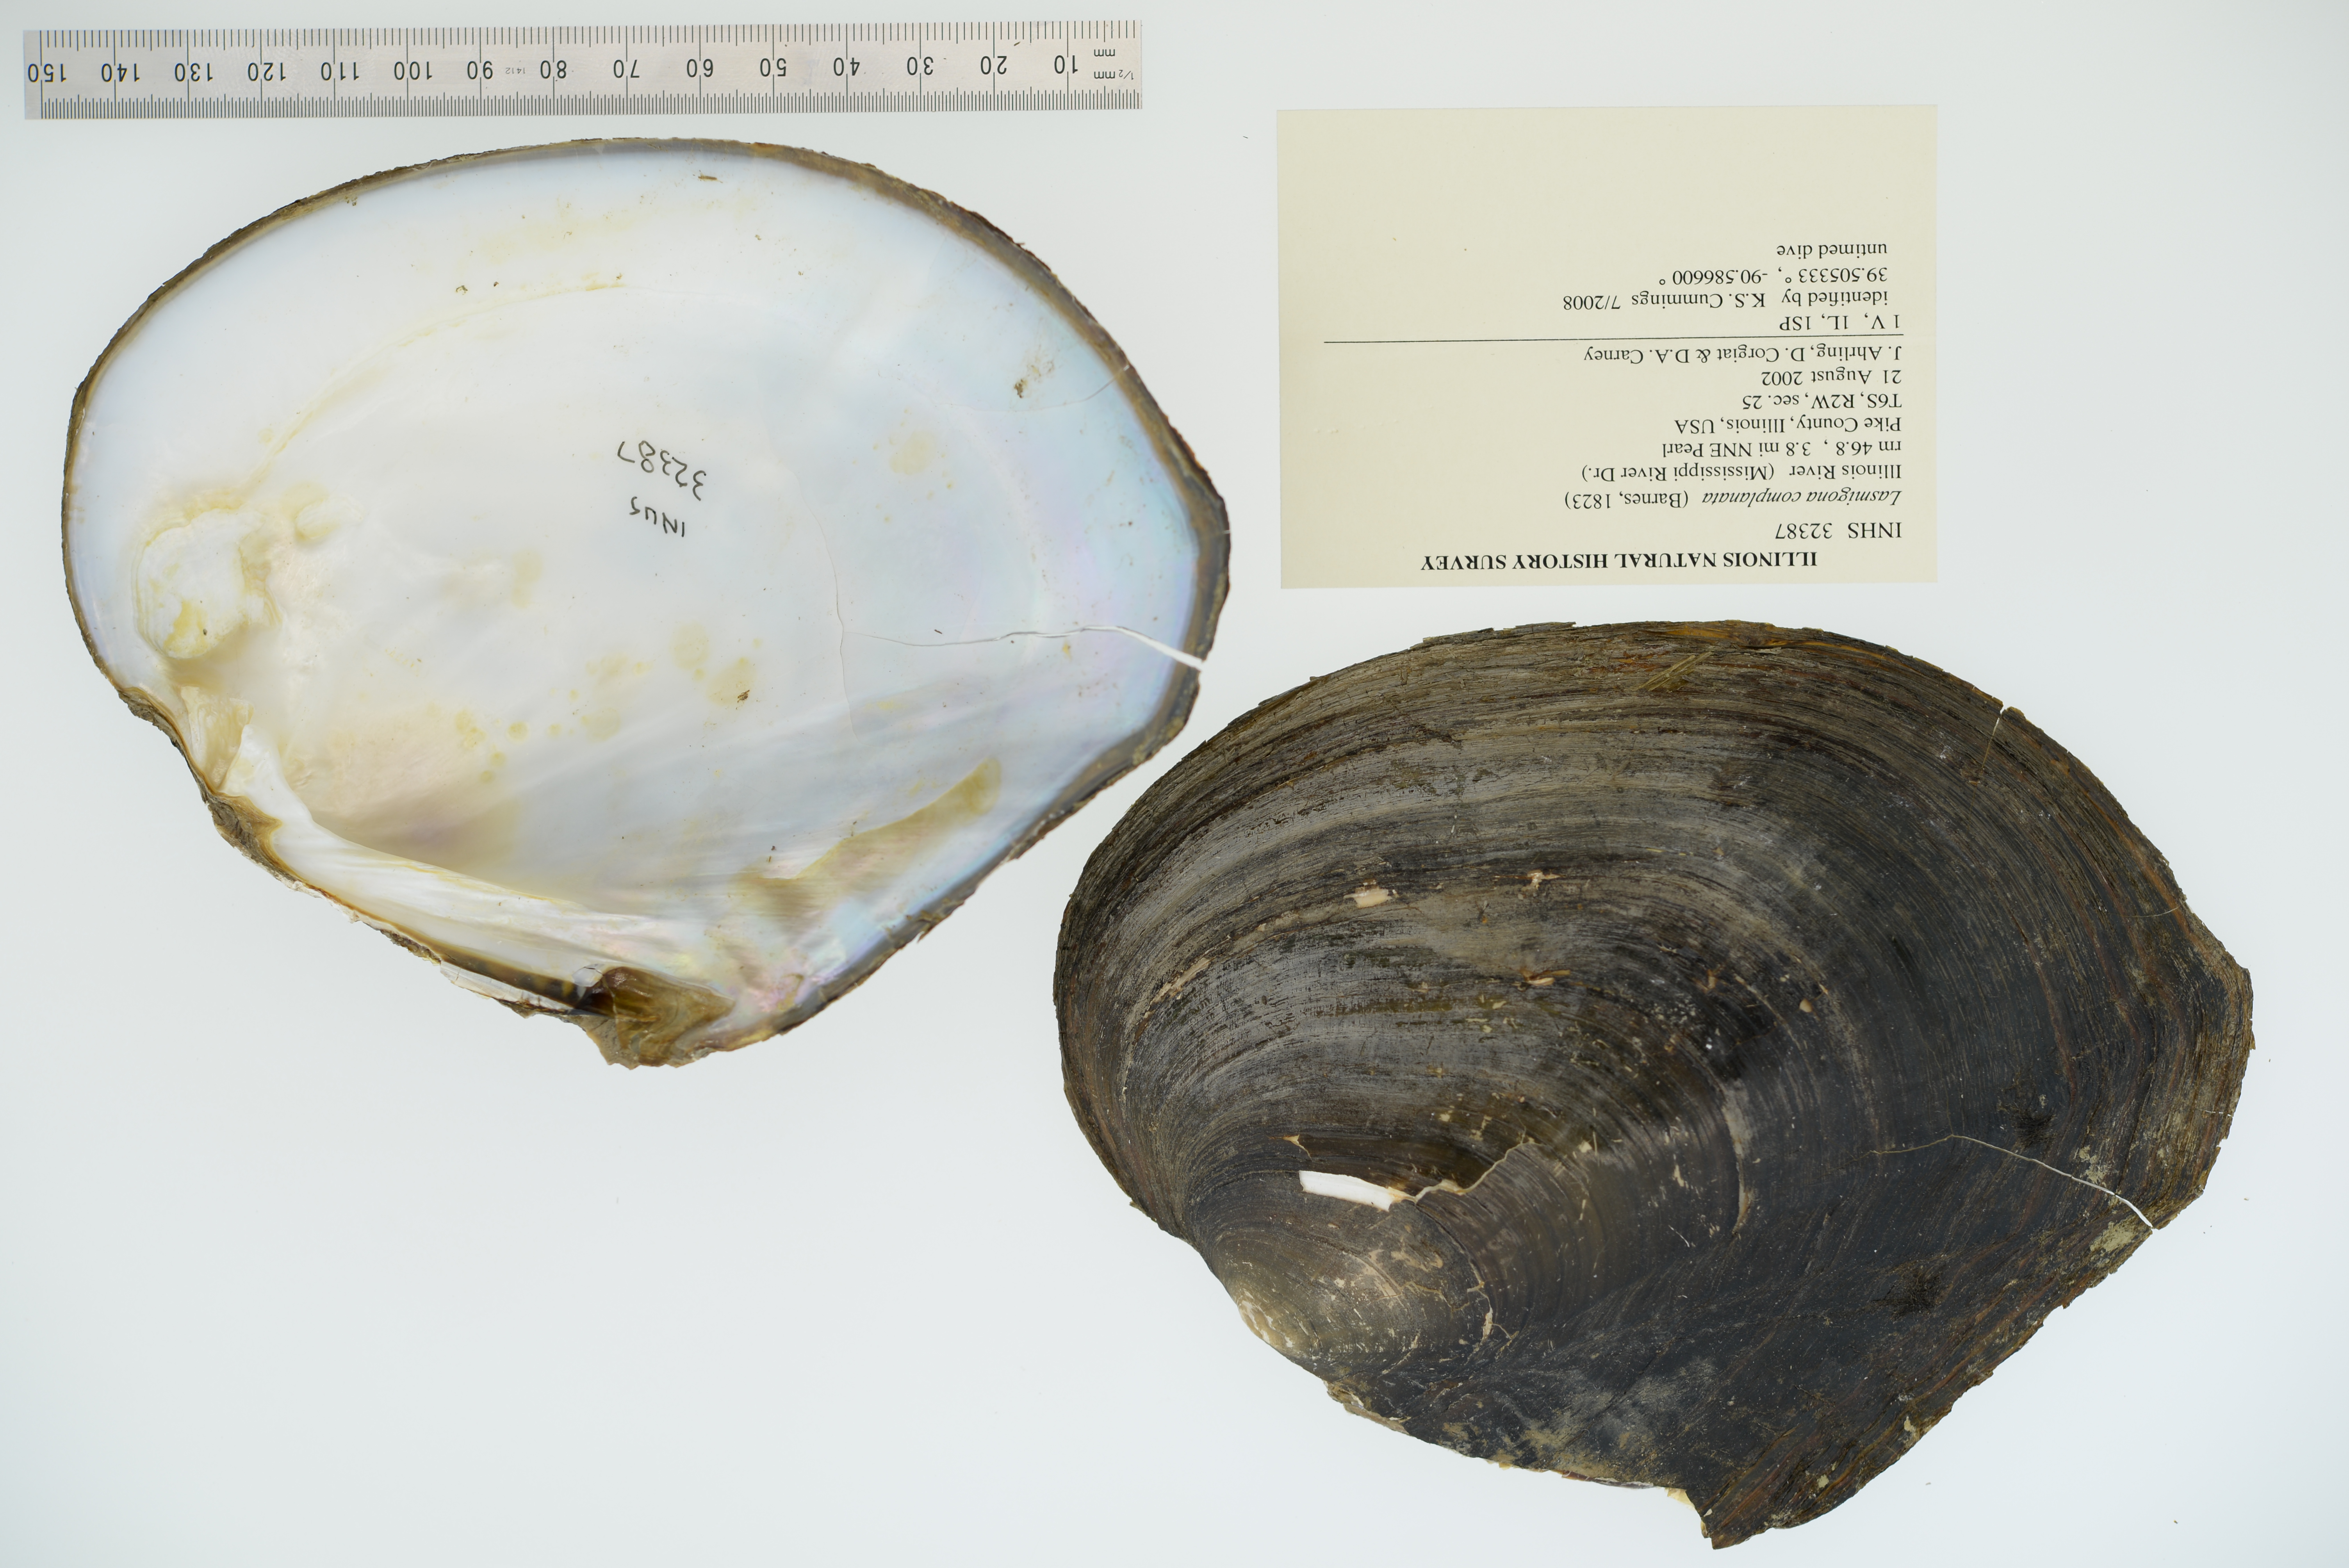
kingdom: Animalia
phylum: Mollusca
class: Bivalvia
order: Unionida
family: Unionidae
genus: Lasmigona
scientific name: Lasmigona complanata
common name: White heelsplitter
